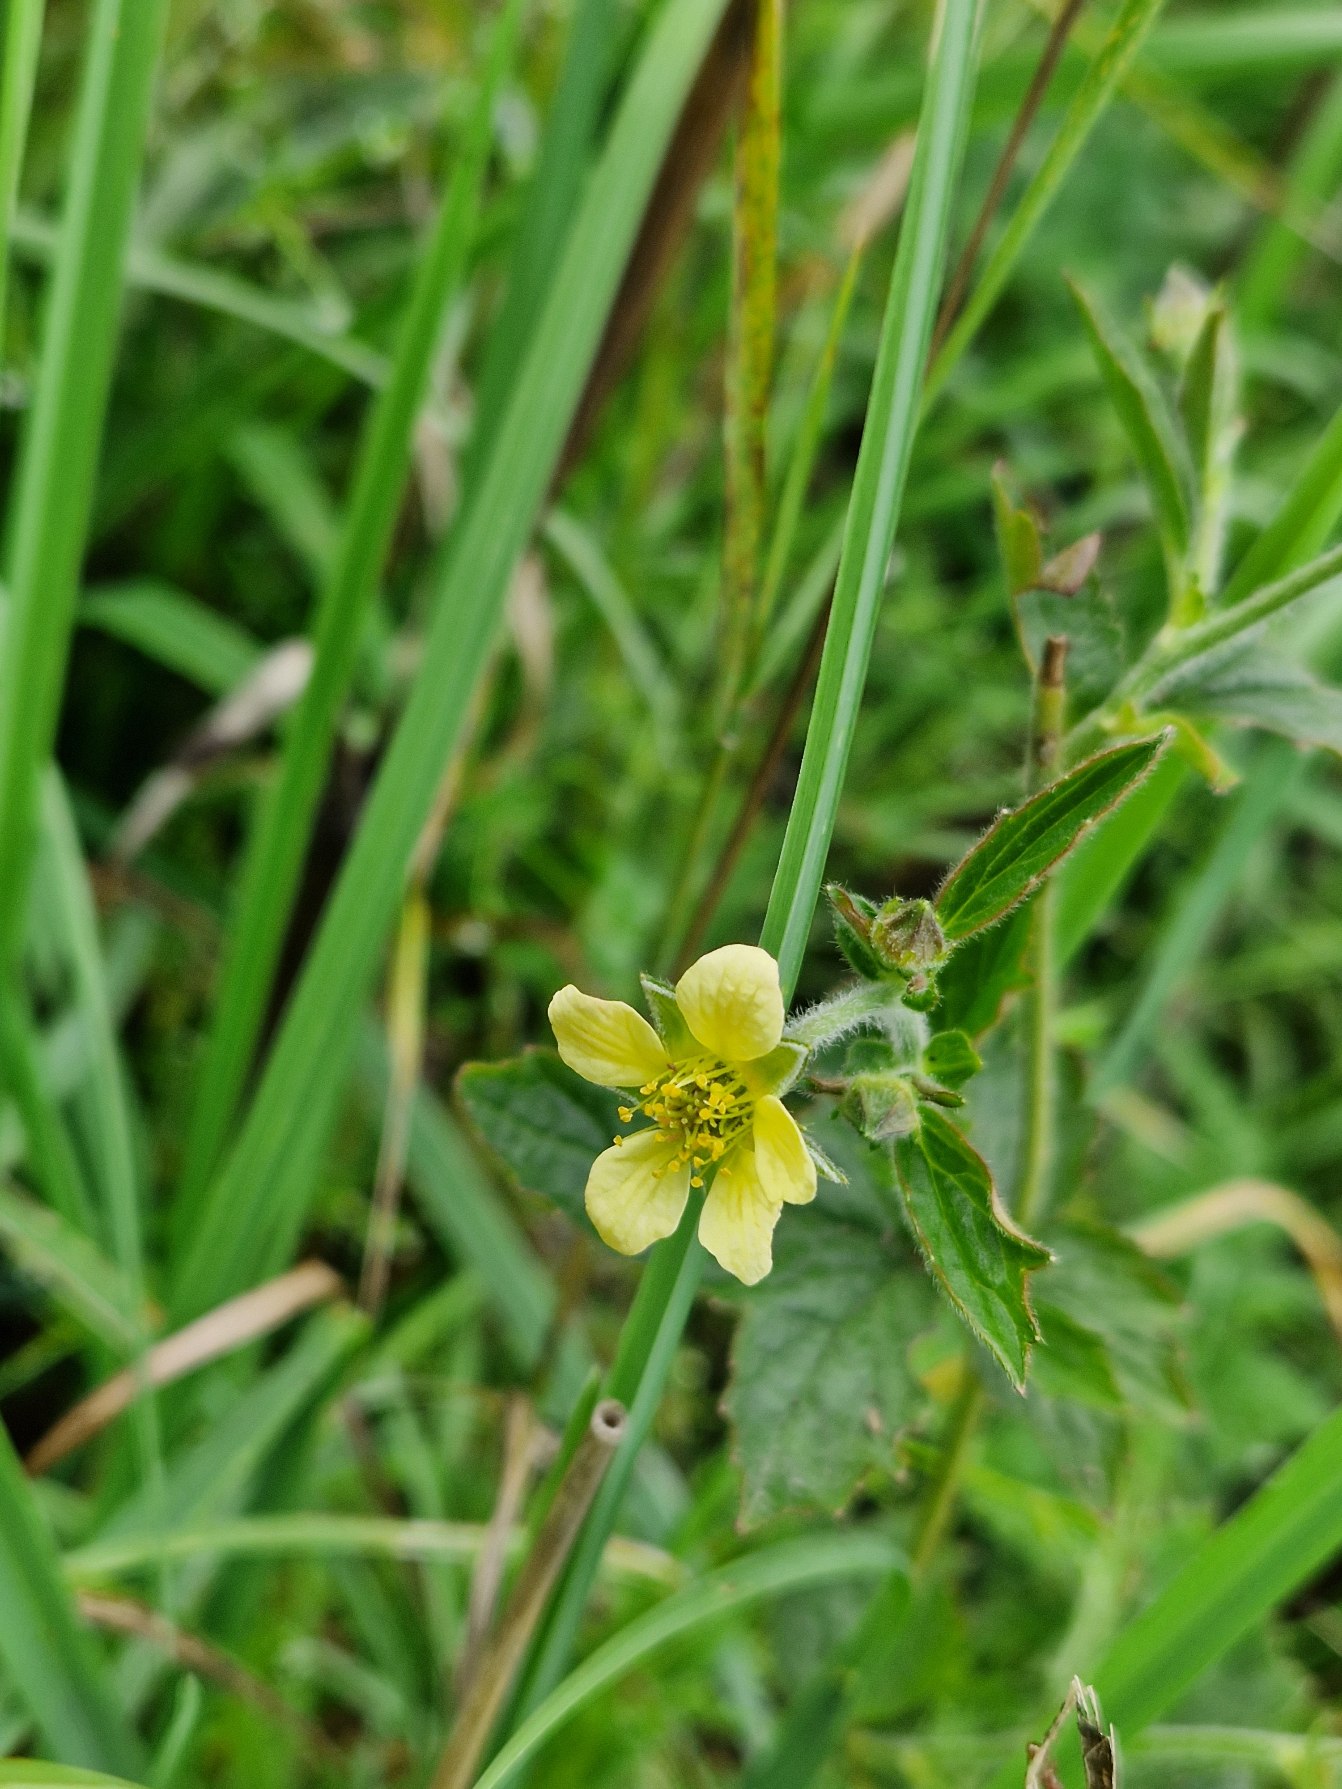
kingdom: Plantae
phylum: Tracheophyta
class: Magnoliopsida
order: Rosales
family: Rosaceae
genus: Geum
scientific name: Geum urbanum
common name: Feber-nellikerod
